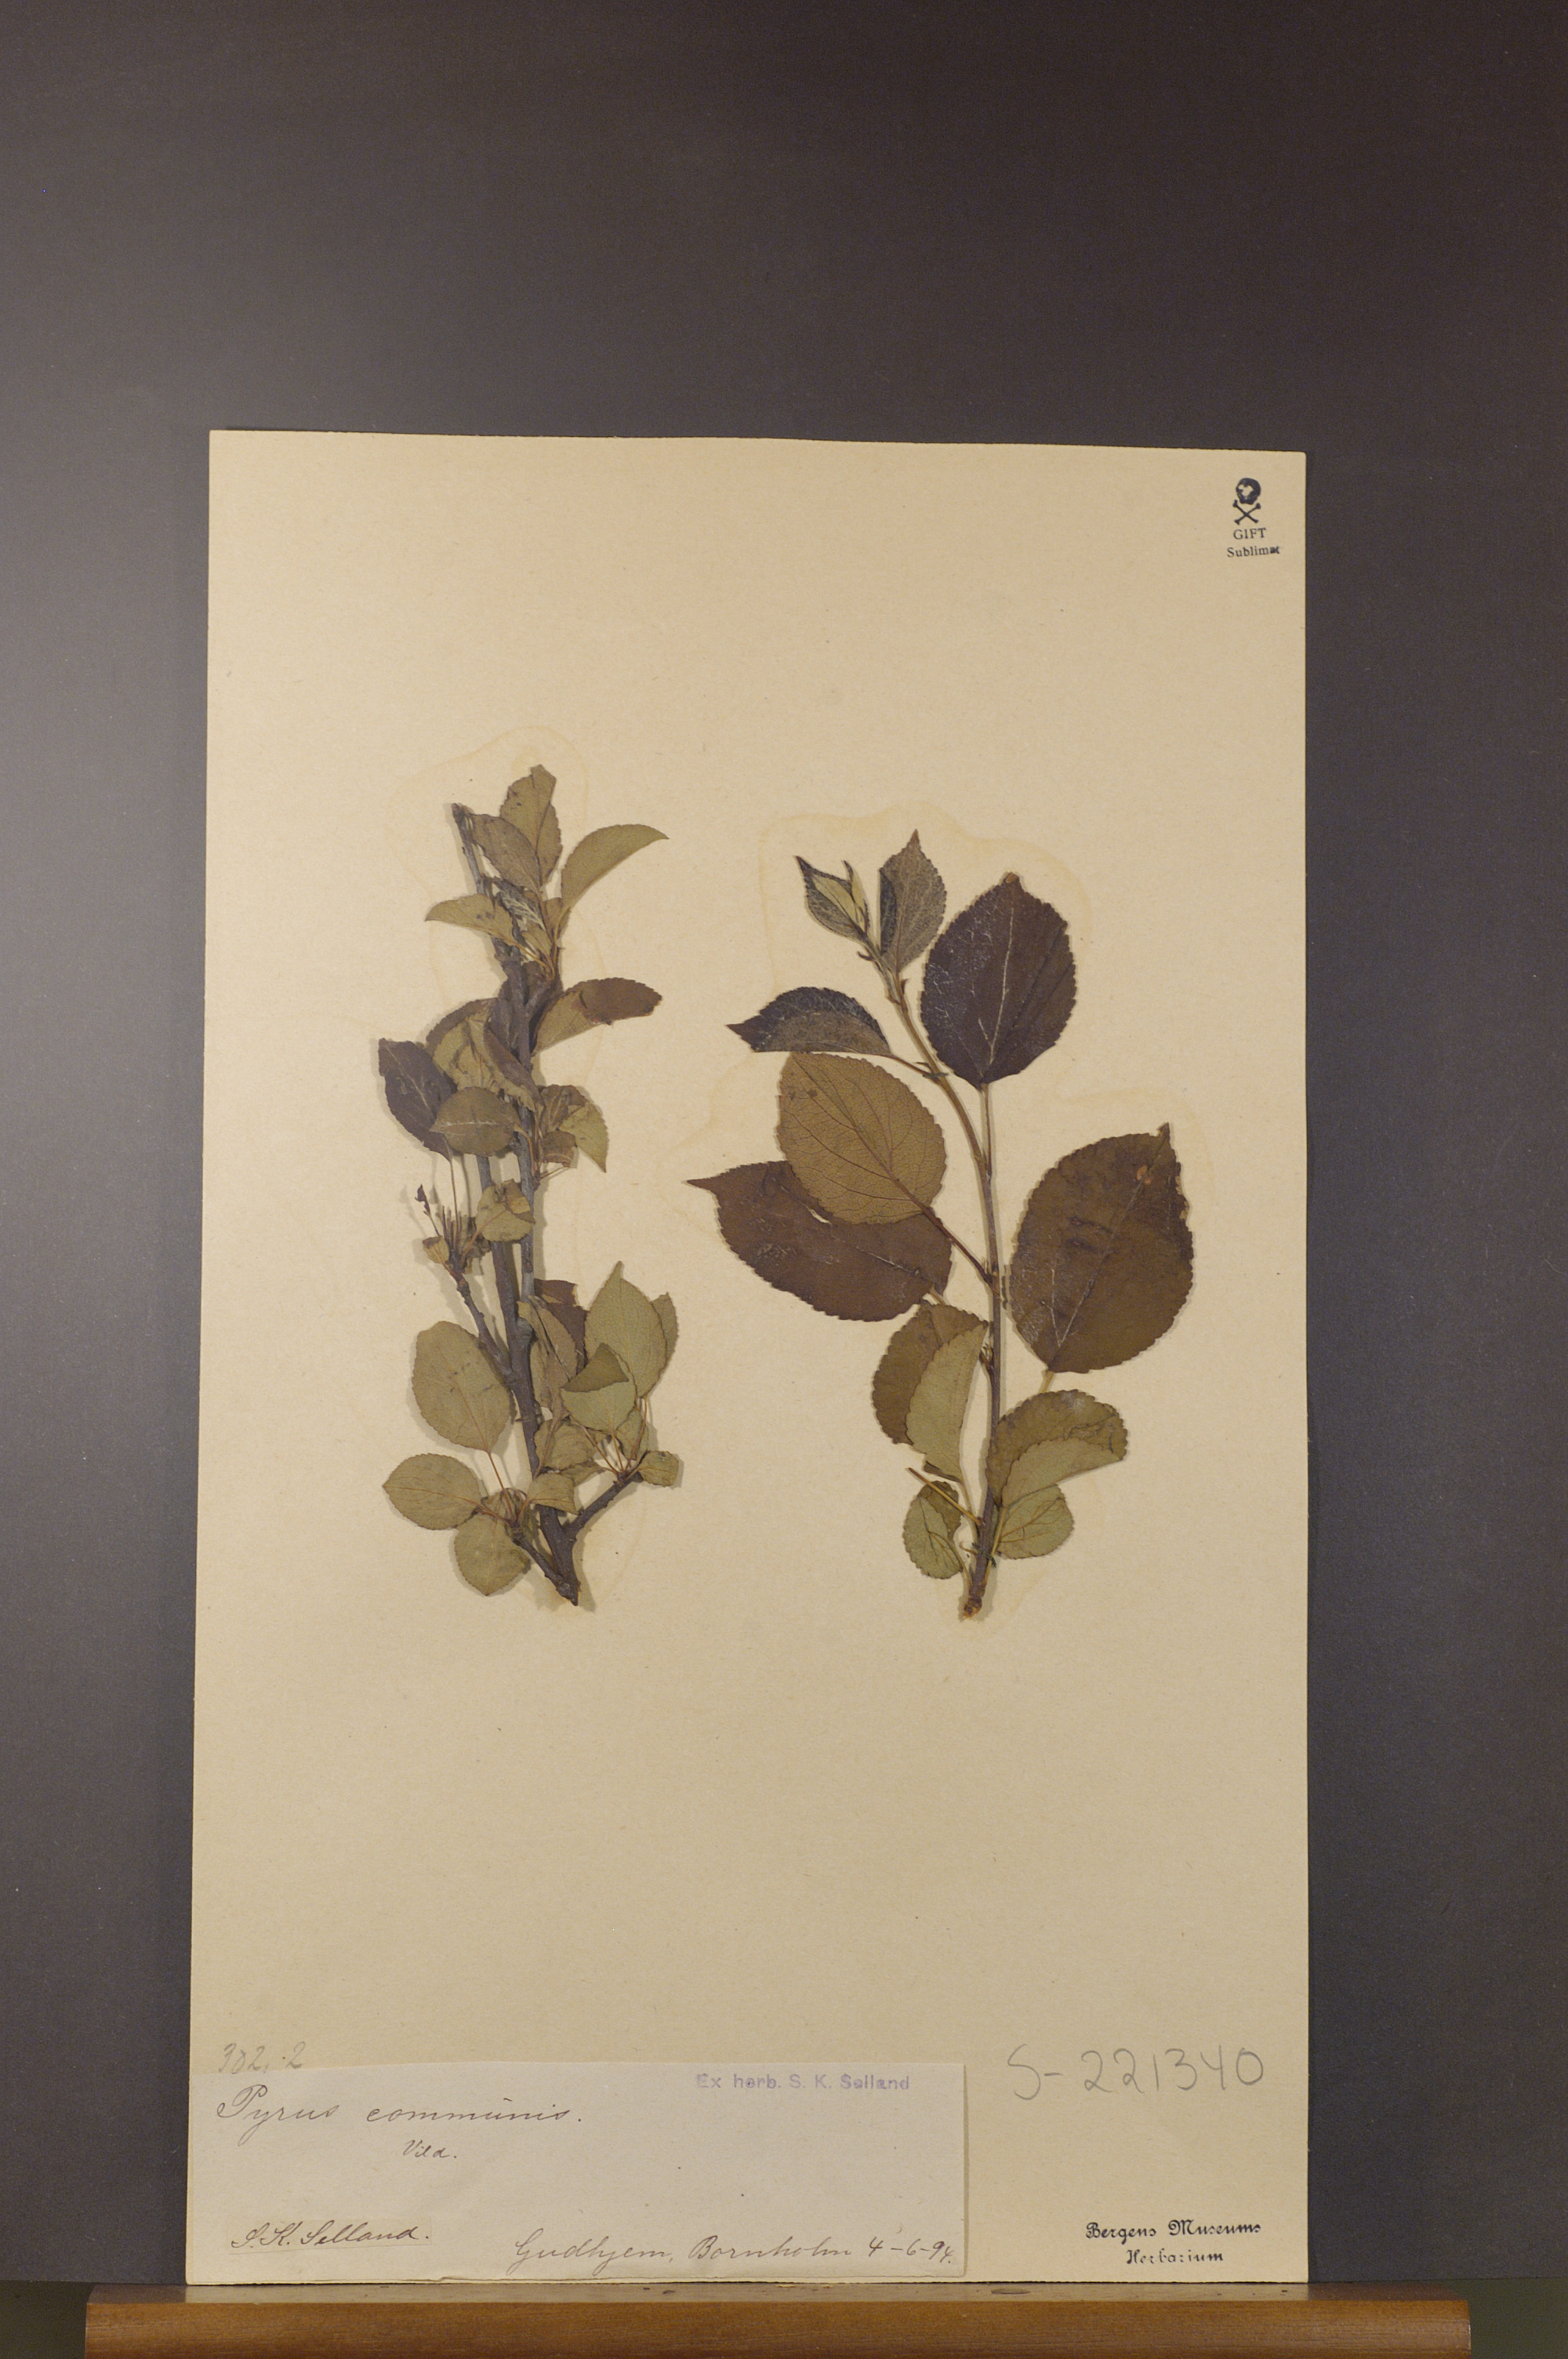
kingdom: Plantae
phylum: Tracheophyta
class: Magnoliopsida
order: Rosales
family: Rosaceae
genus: Pyrus
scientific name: Pyrus communis
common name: Pear
